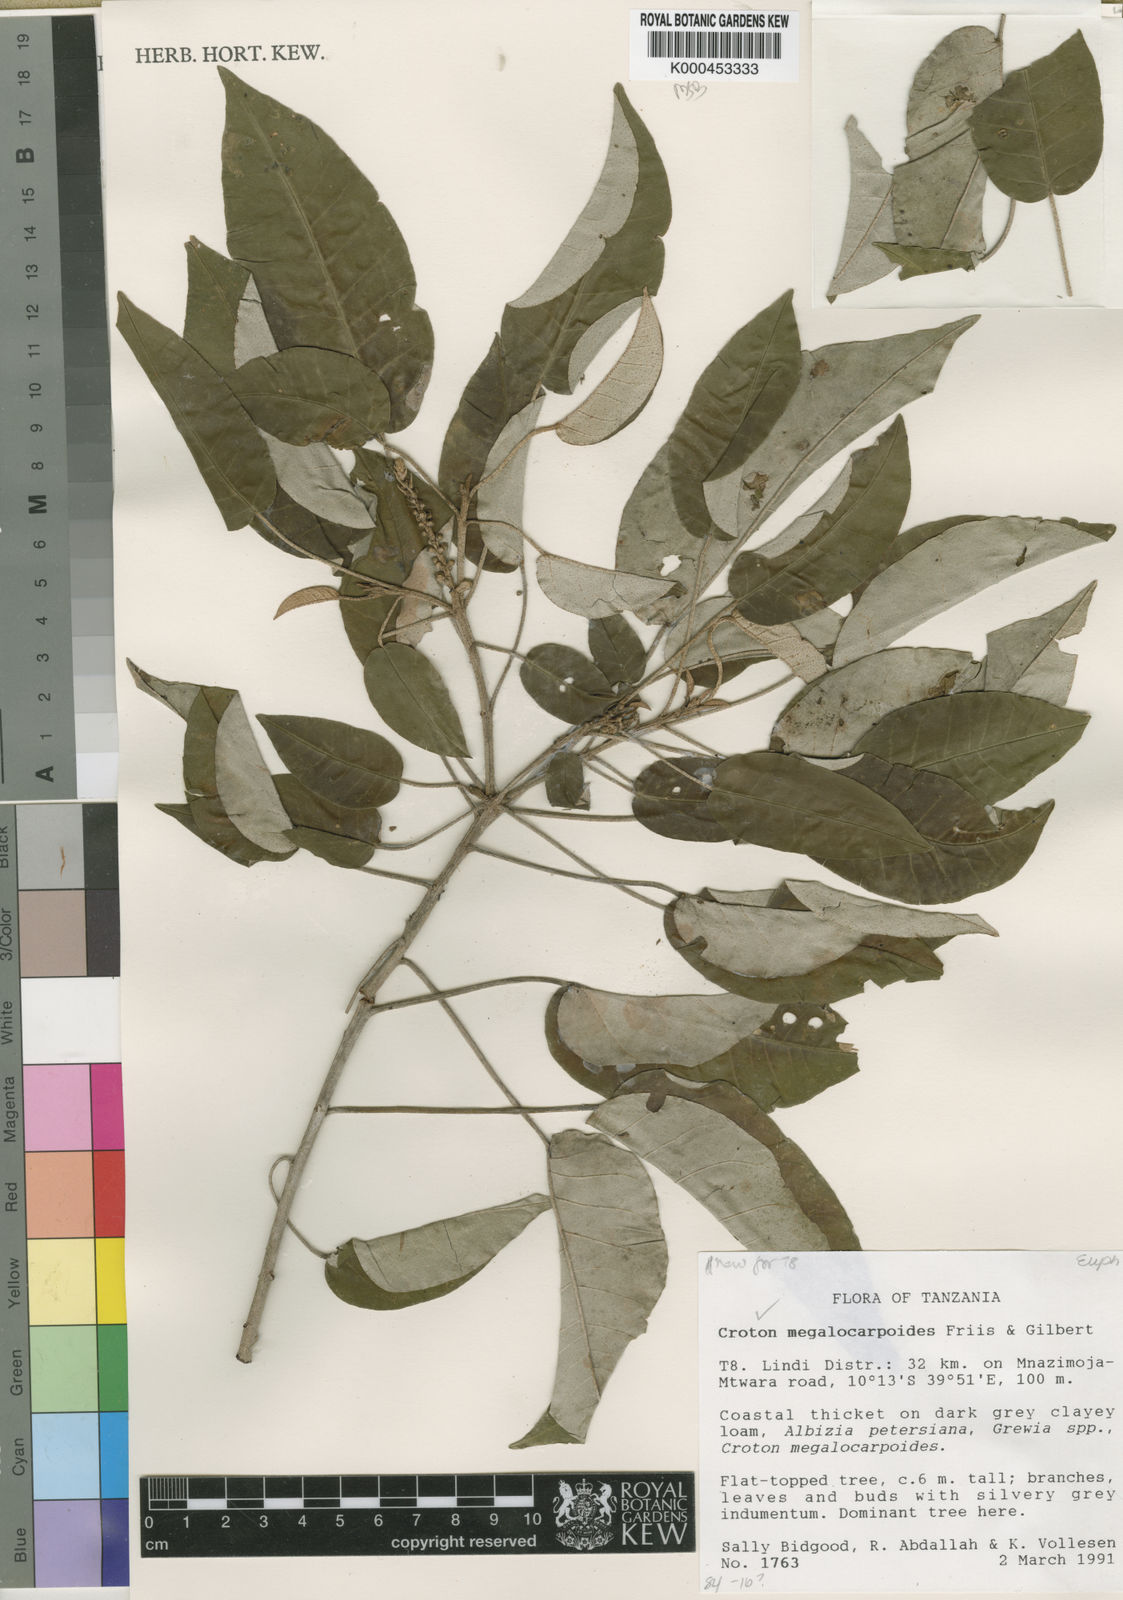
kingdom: Plantae
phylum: Tracheophyta
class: Magnoliopsida
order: Malpighiales
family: Euphorbiaceae
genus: Croton
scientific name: Croton megalocarpoides
